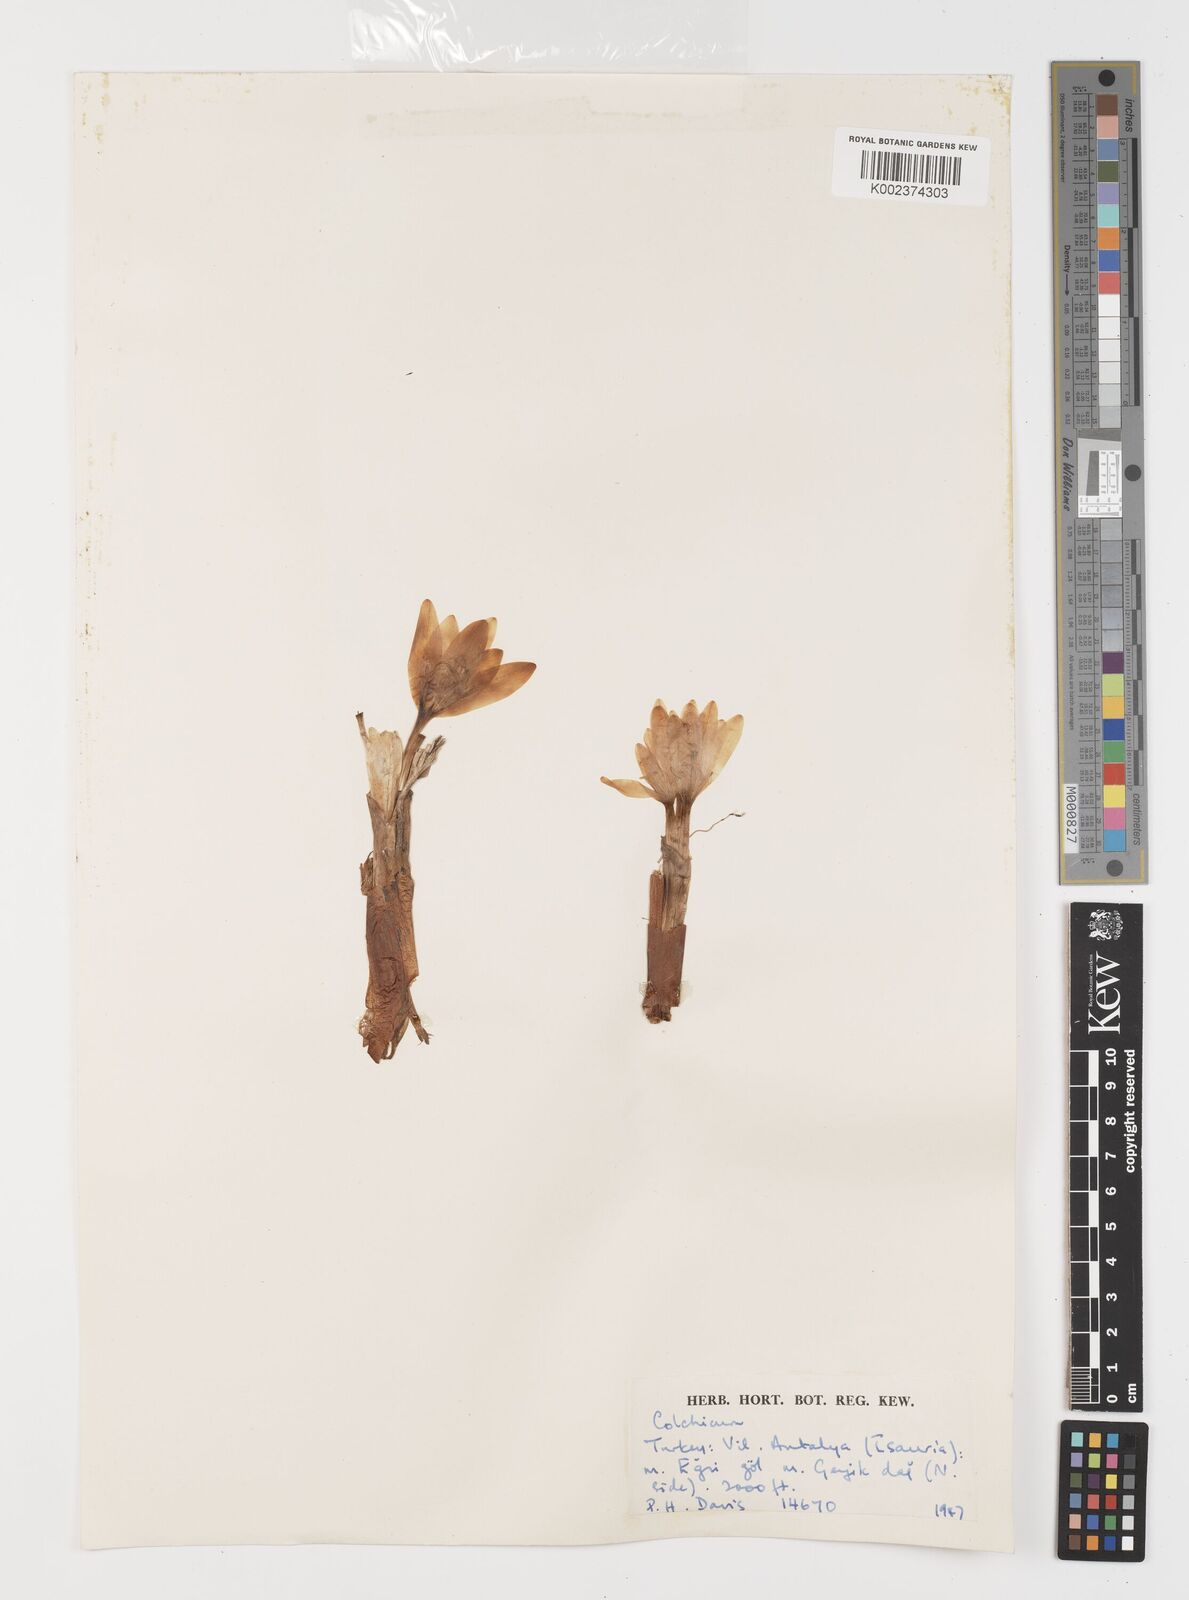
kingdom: Plantae
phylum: Tracheophyta
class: Liliopsida
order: Liliales
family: Colchicaceae
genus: Colchicum
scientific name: Colchicum
